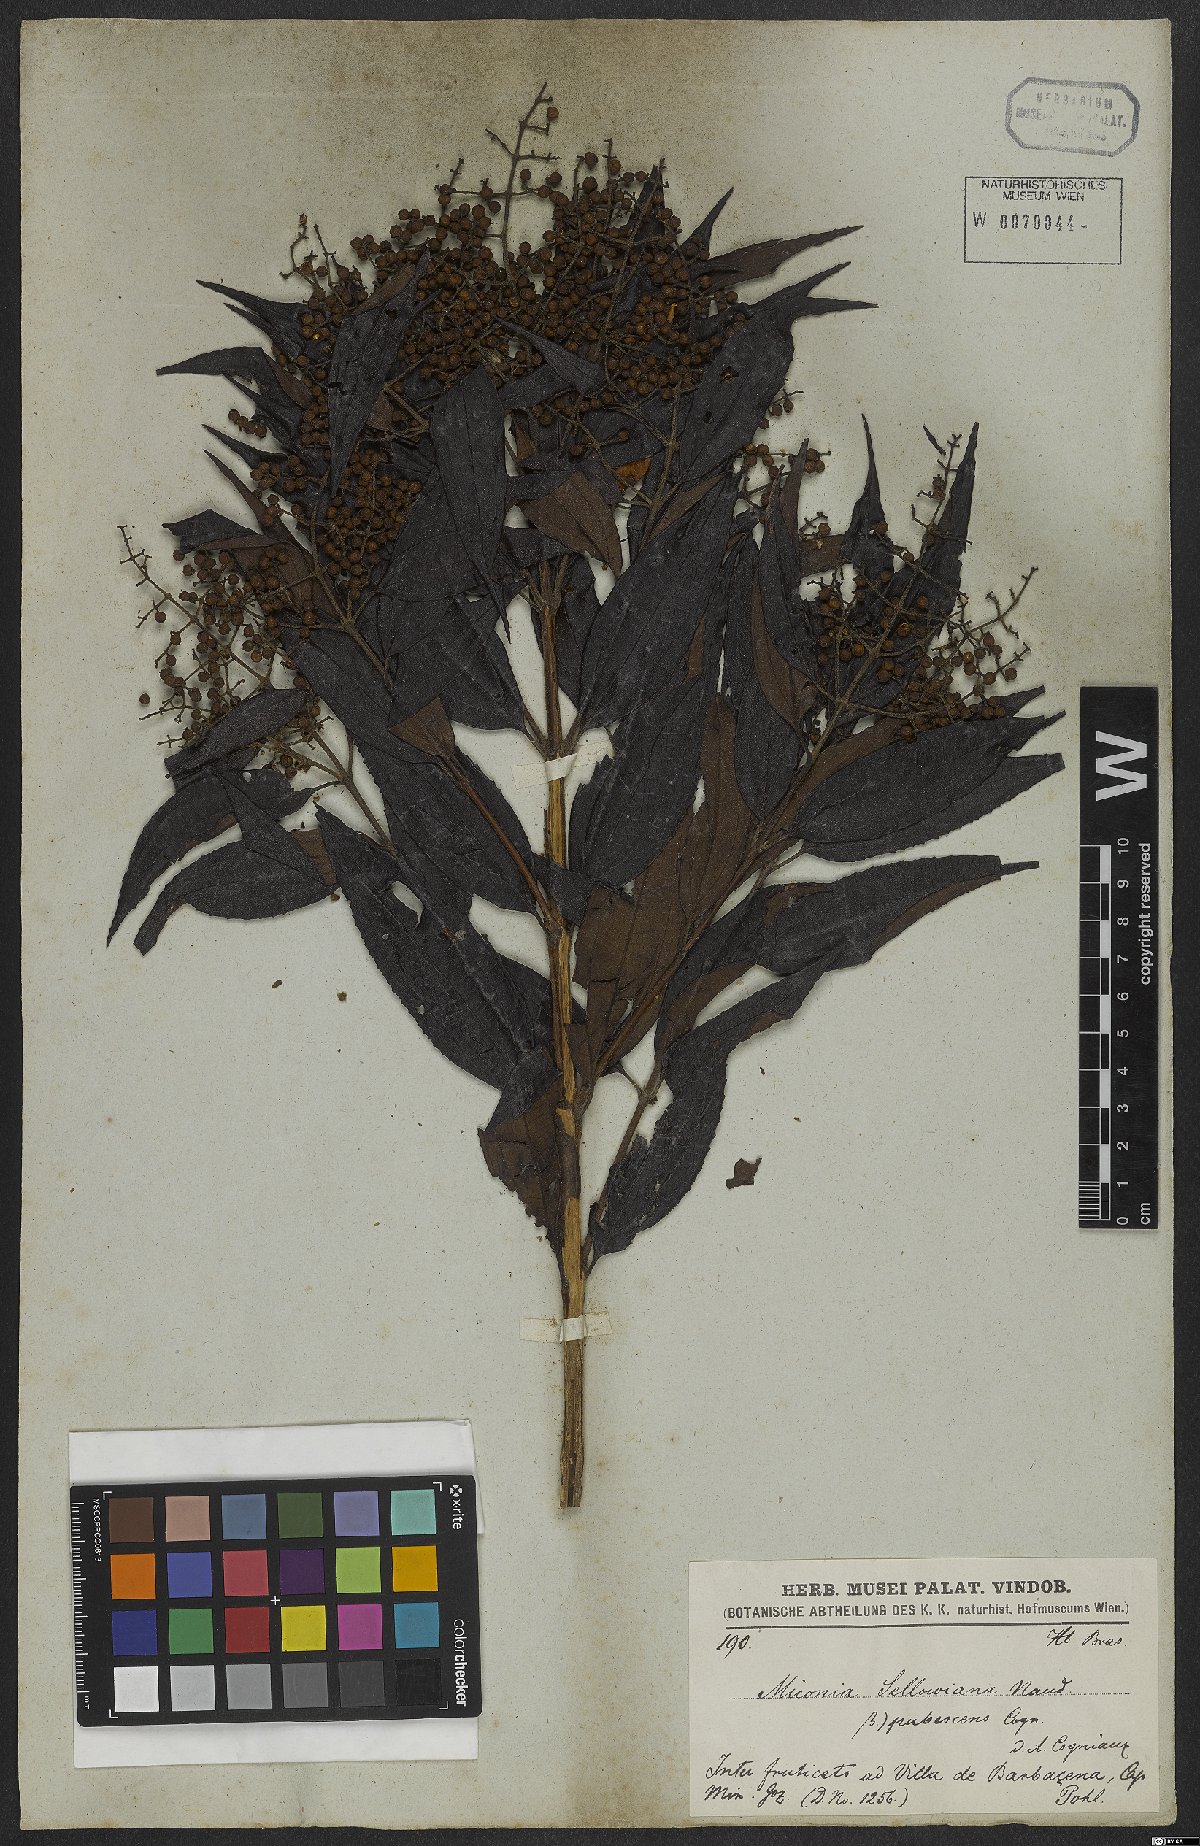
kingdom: Plantae
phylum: Tracheophyta
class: Magnoliopsida
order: Myrtales
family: Melastomataceae
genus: Miconia
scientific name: Miconia sellowiana
